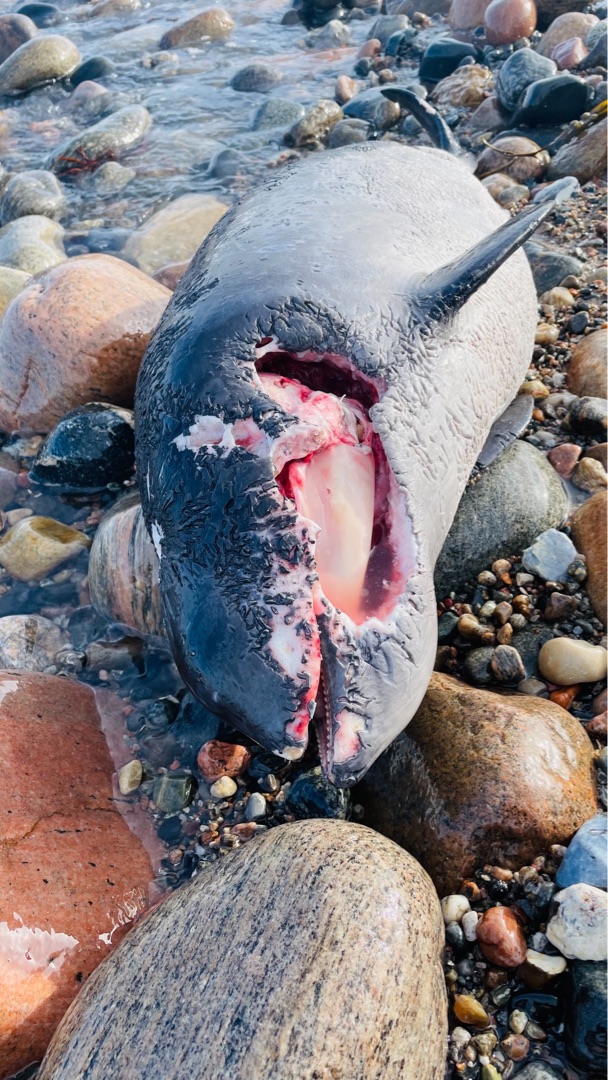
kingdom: Animalia
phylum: Chordata
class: Mammalia
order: Cetacea
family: Phocoenidae
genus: Phocoena
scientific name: Phocoena phocoena
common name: Marsvin
